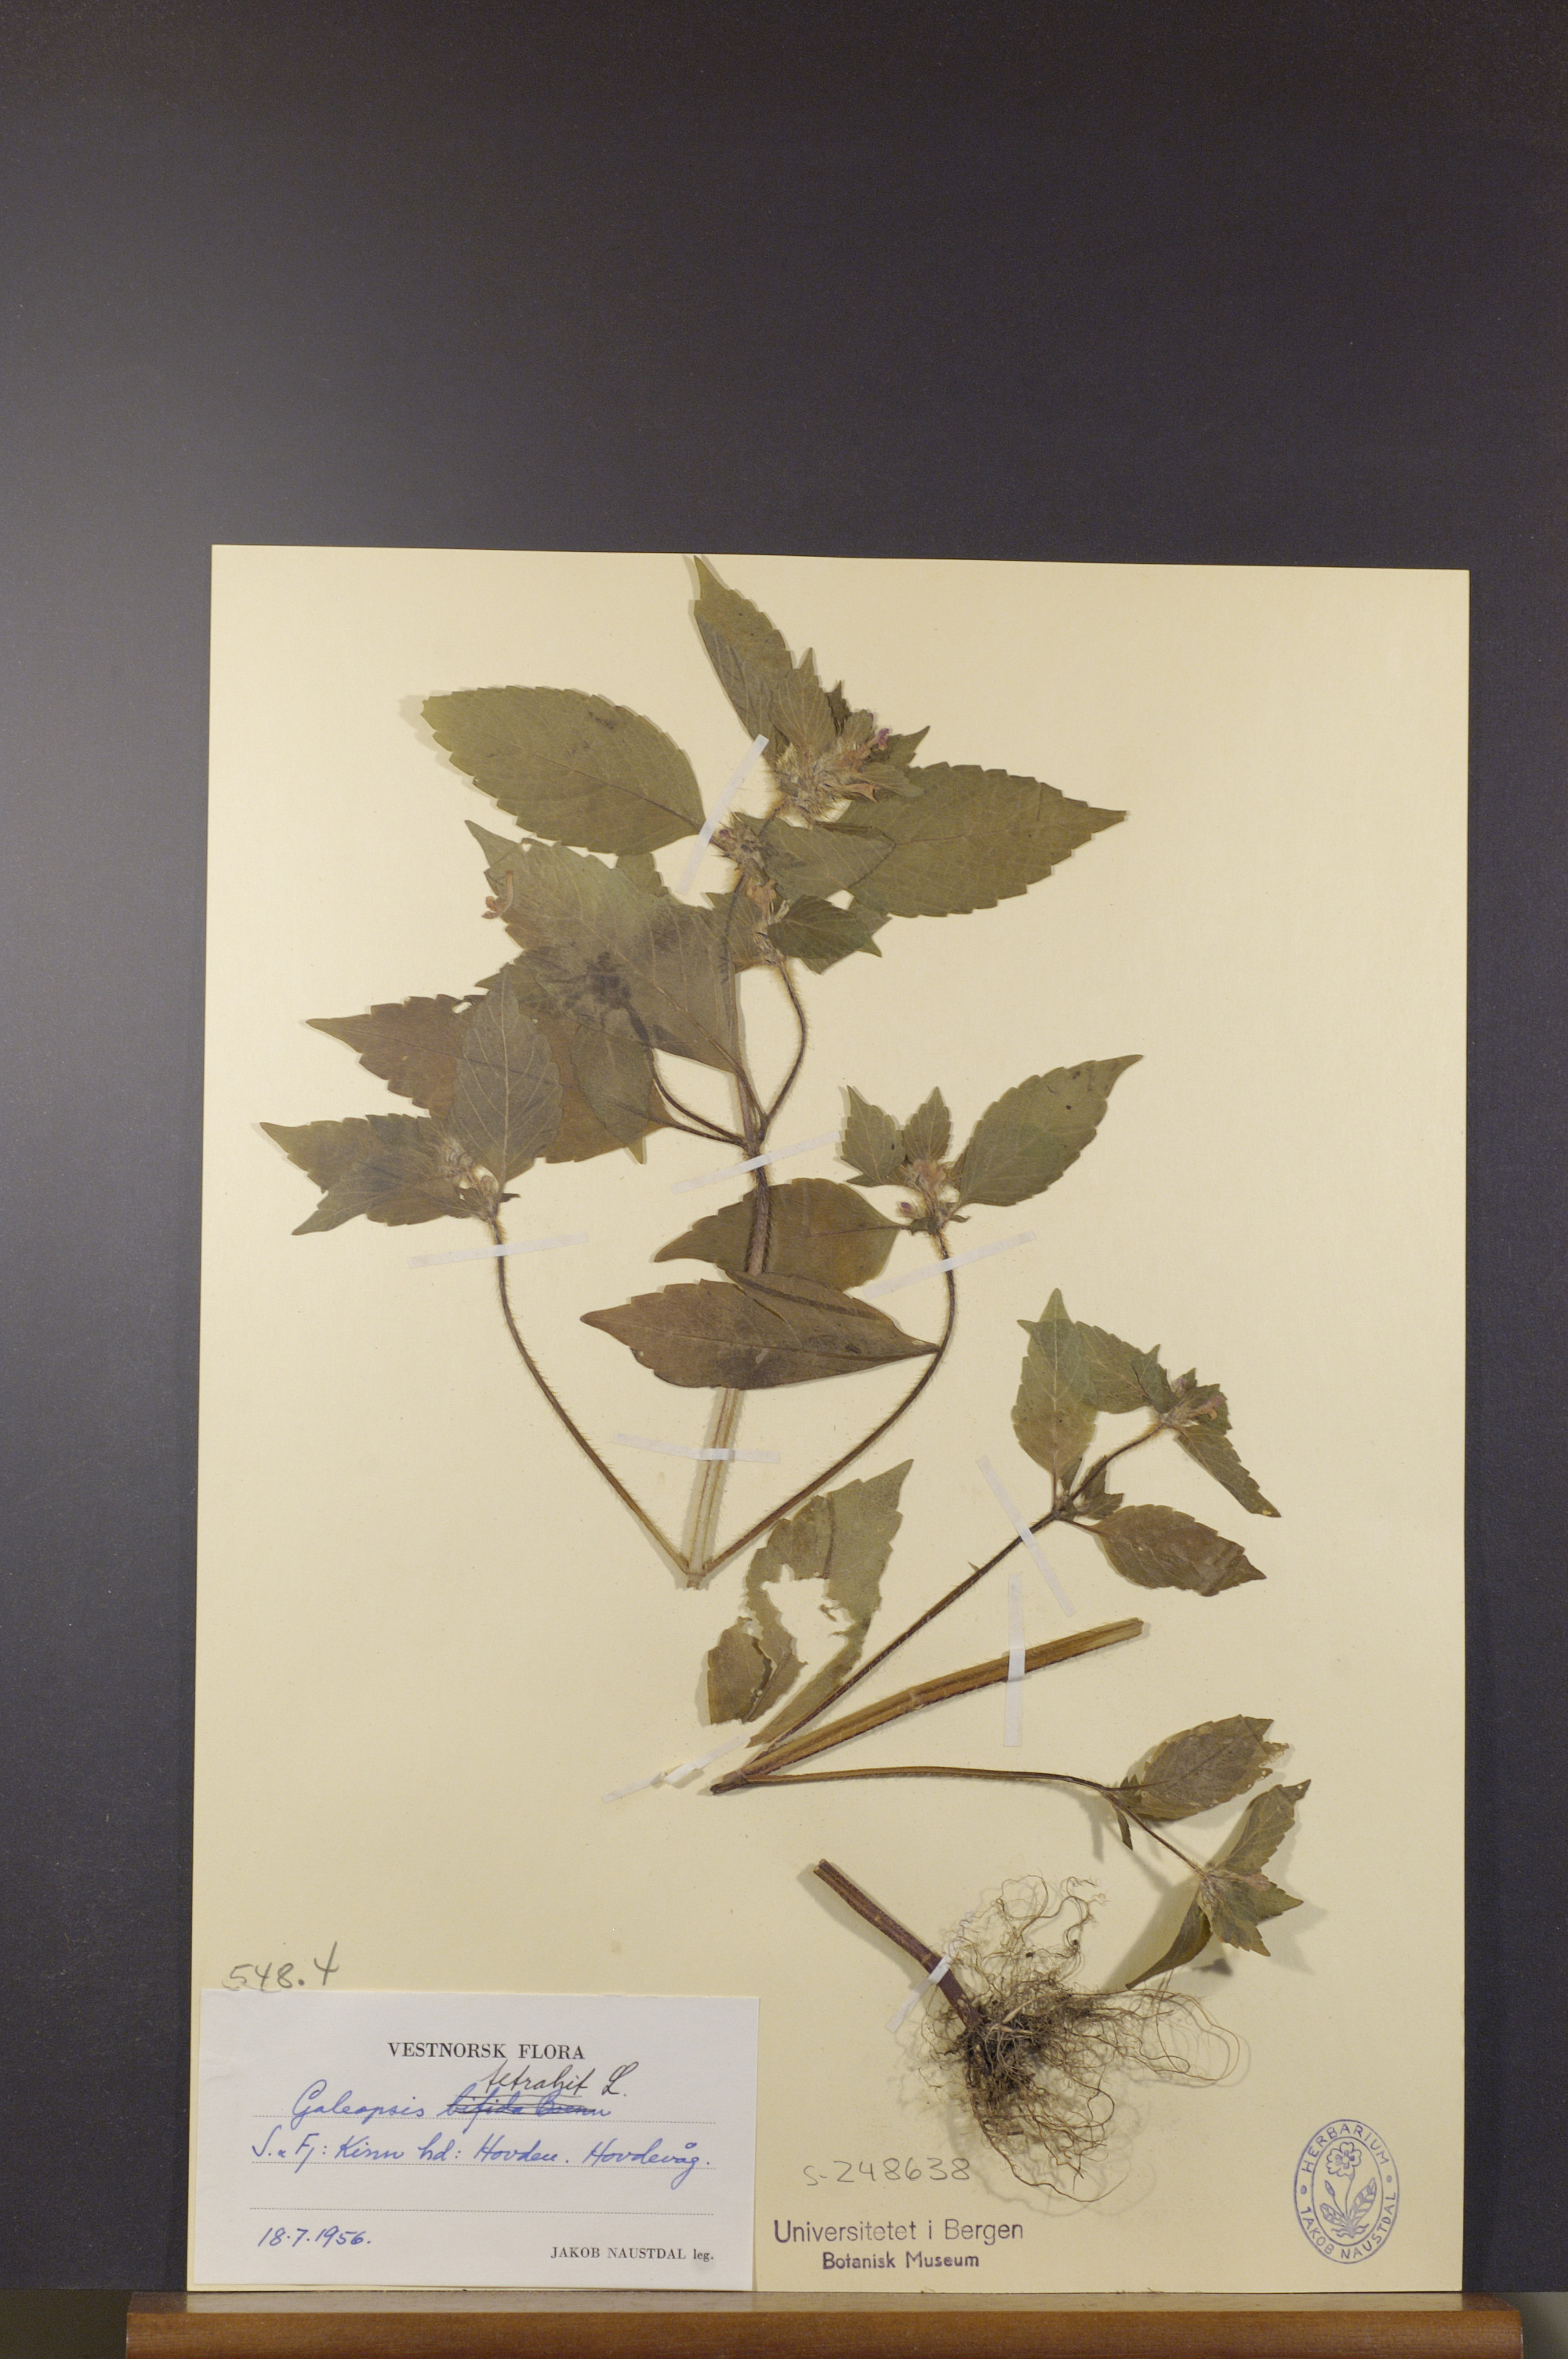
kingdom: Plantae
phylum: Tracheophyta
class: Magnoliopsida
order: Lamiales
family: Lamiaceae
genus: Galeopsis
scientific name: Galeopsis tetrahit
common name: Common hemp-nettle
